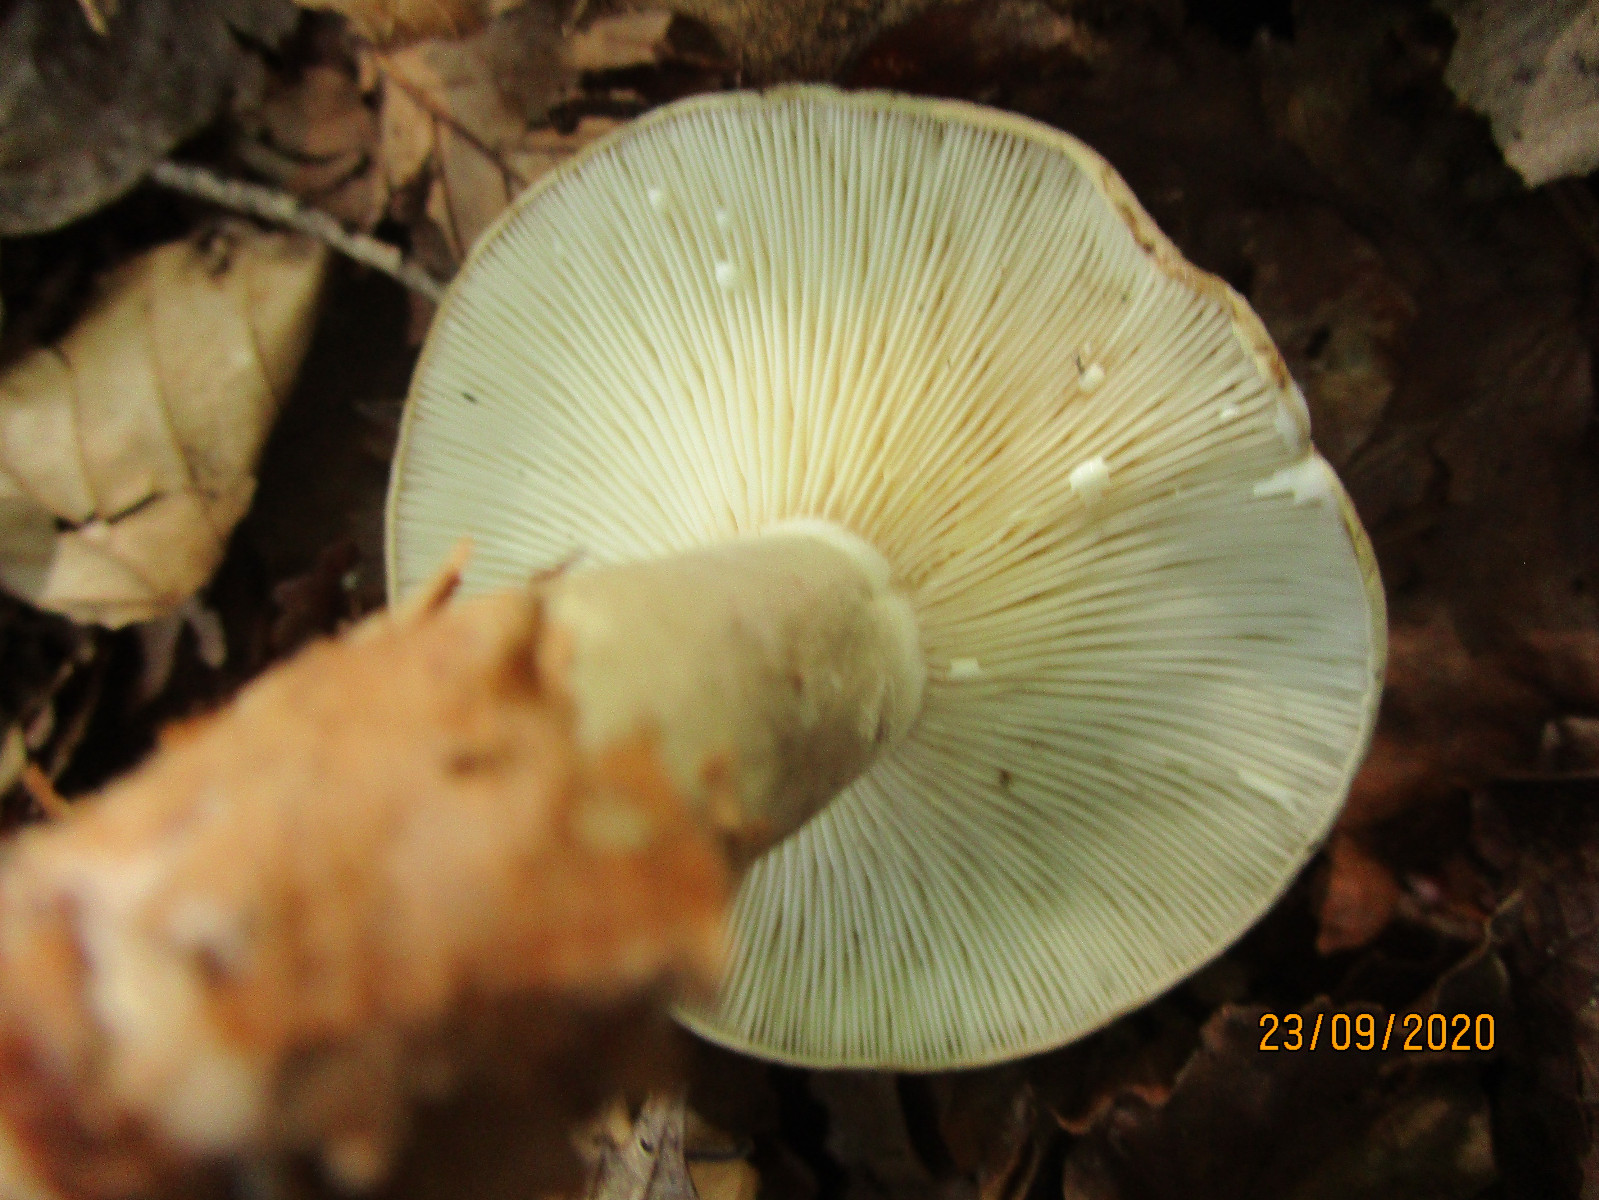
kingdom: Fungi
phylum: Basidiomycota
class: Agaricomycetes
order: Russulales
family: Russulaceae
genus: Lactarius
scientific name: Lactarius blennius
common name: dråbeplettet mælkehat
